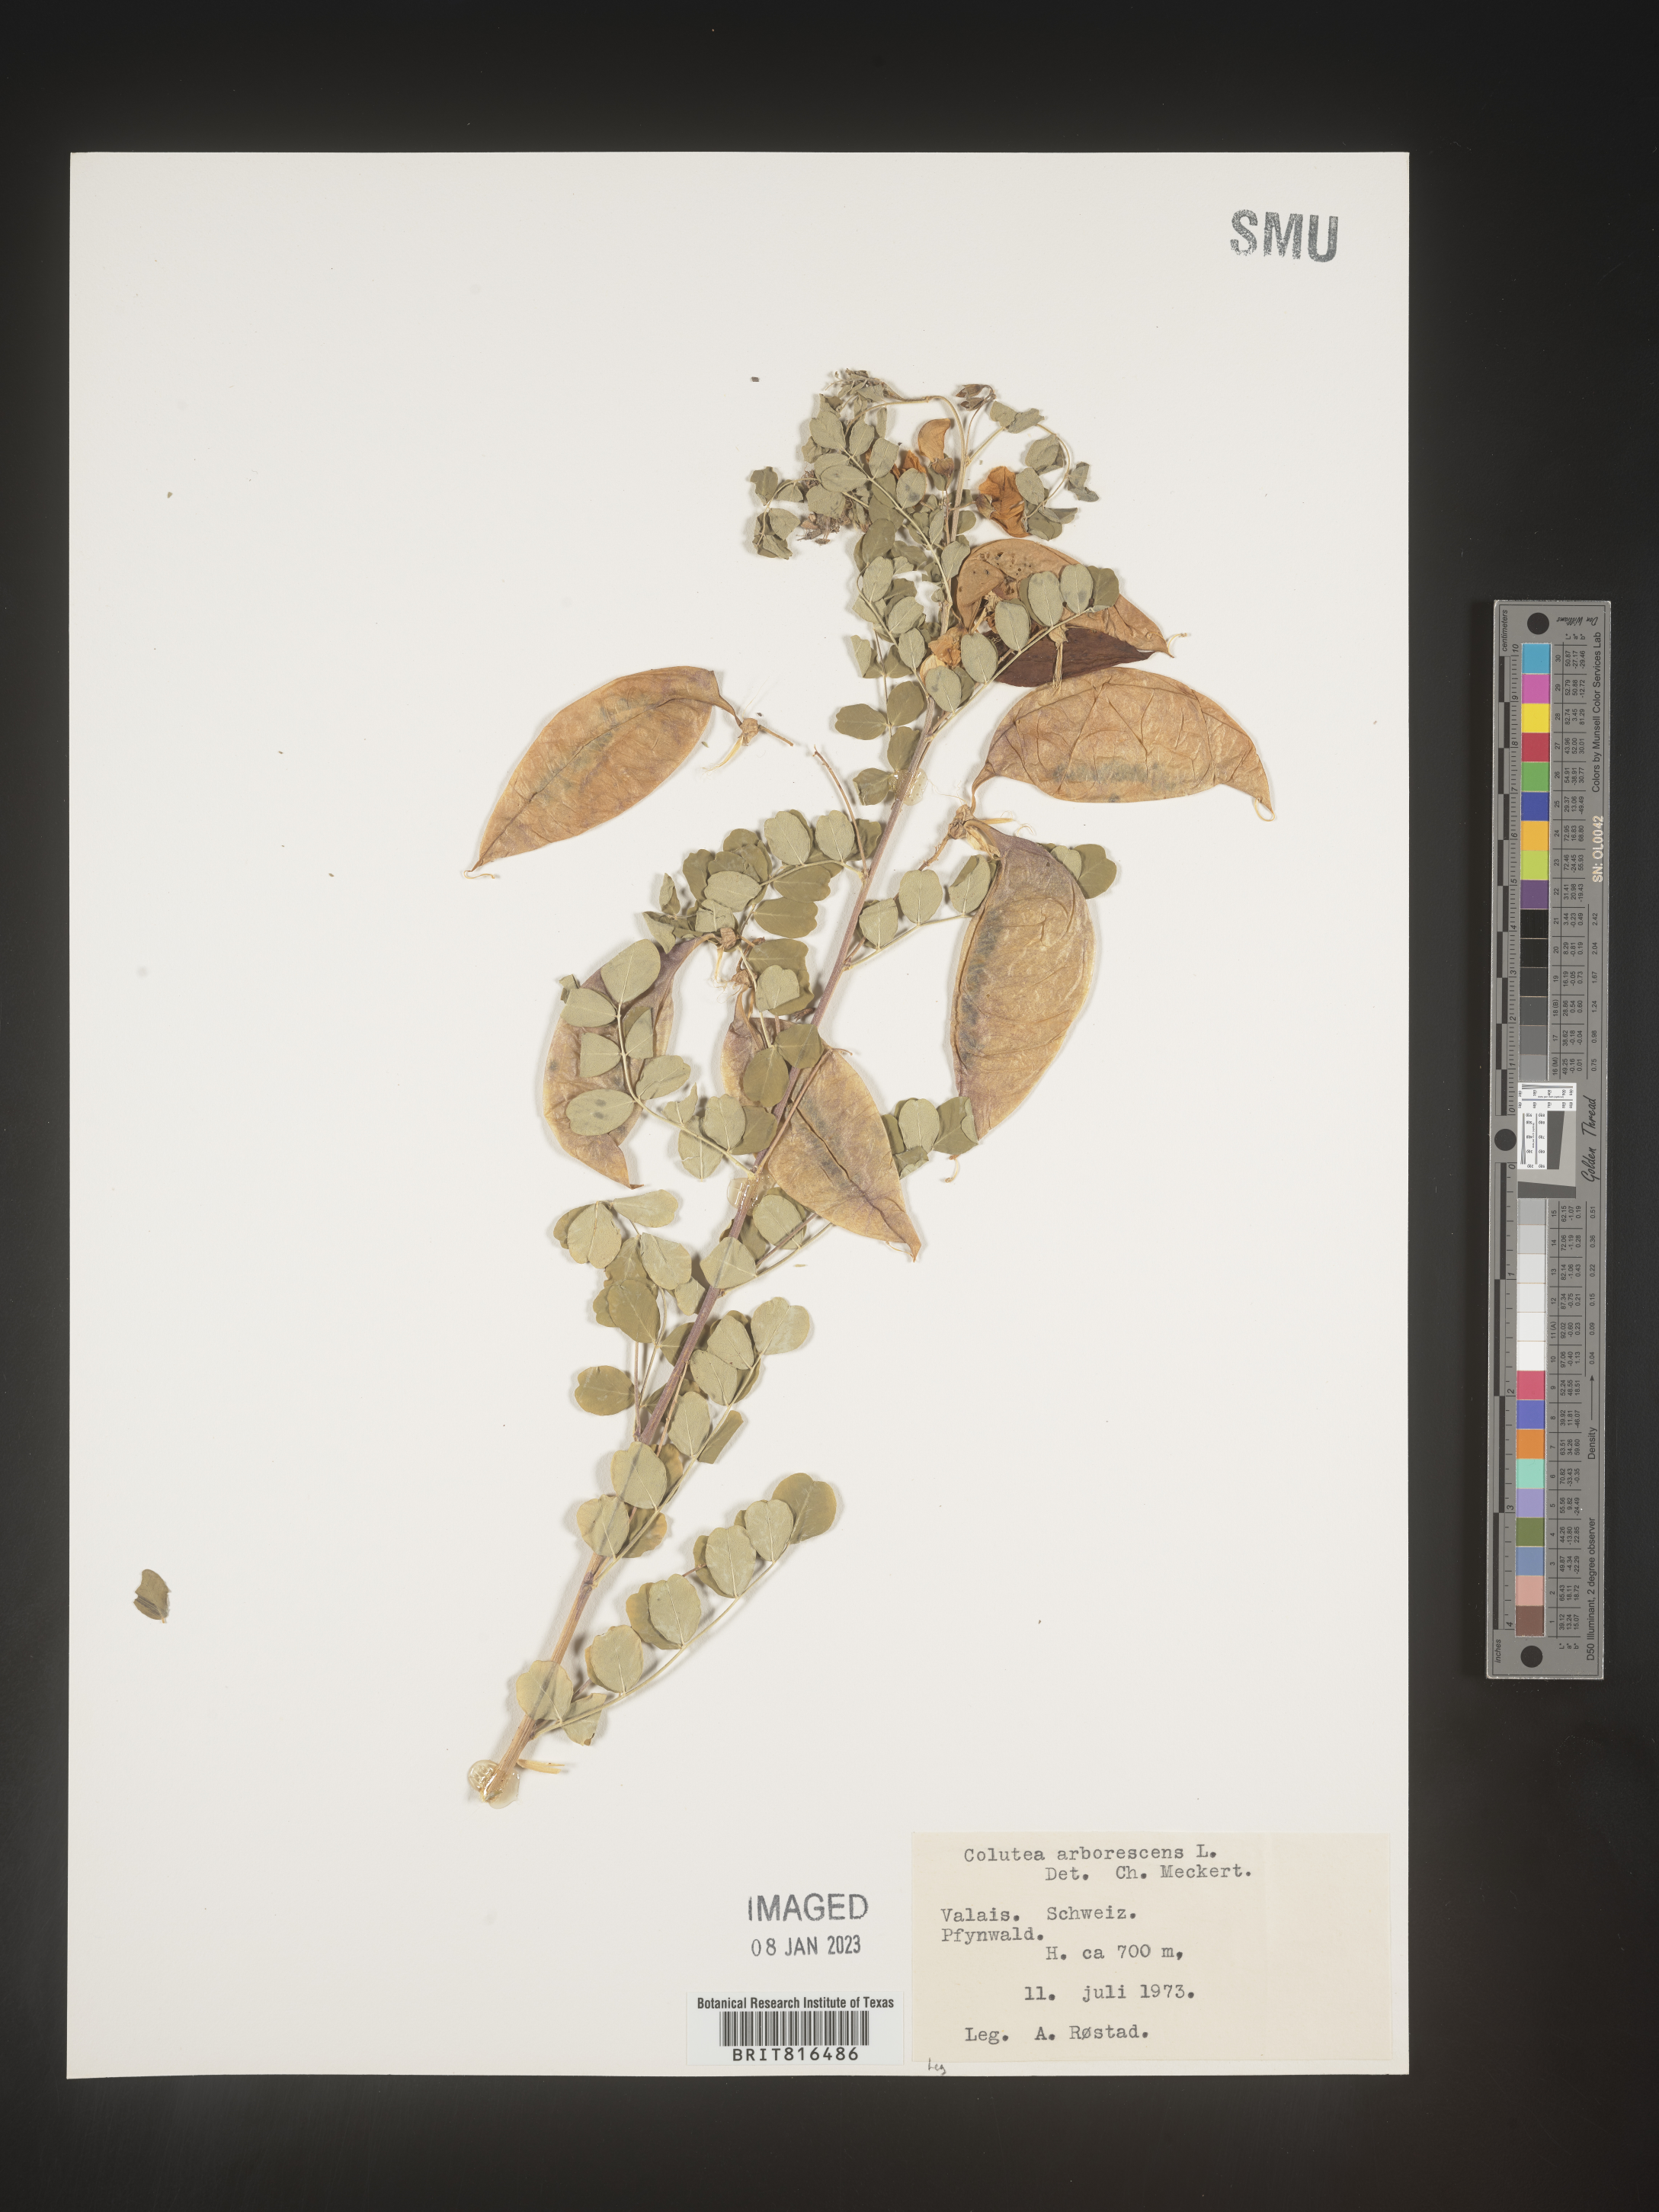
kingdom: Plantae
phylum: Tracheophyta
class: Magnoliopsida
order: Fabales
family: Fabaceae
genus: Colutea
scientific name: Colutea
